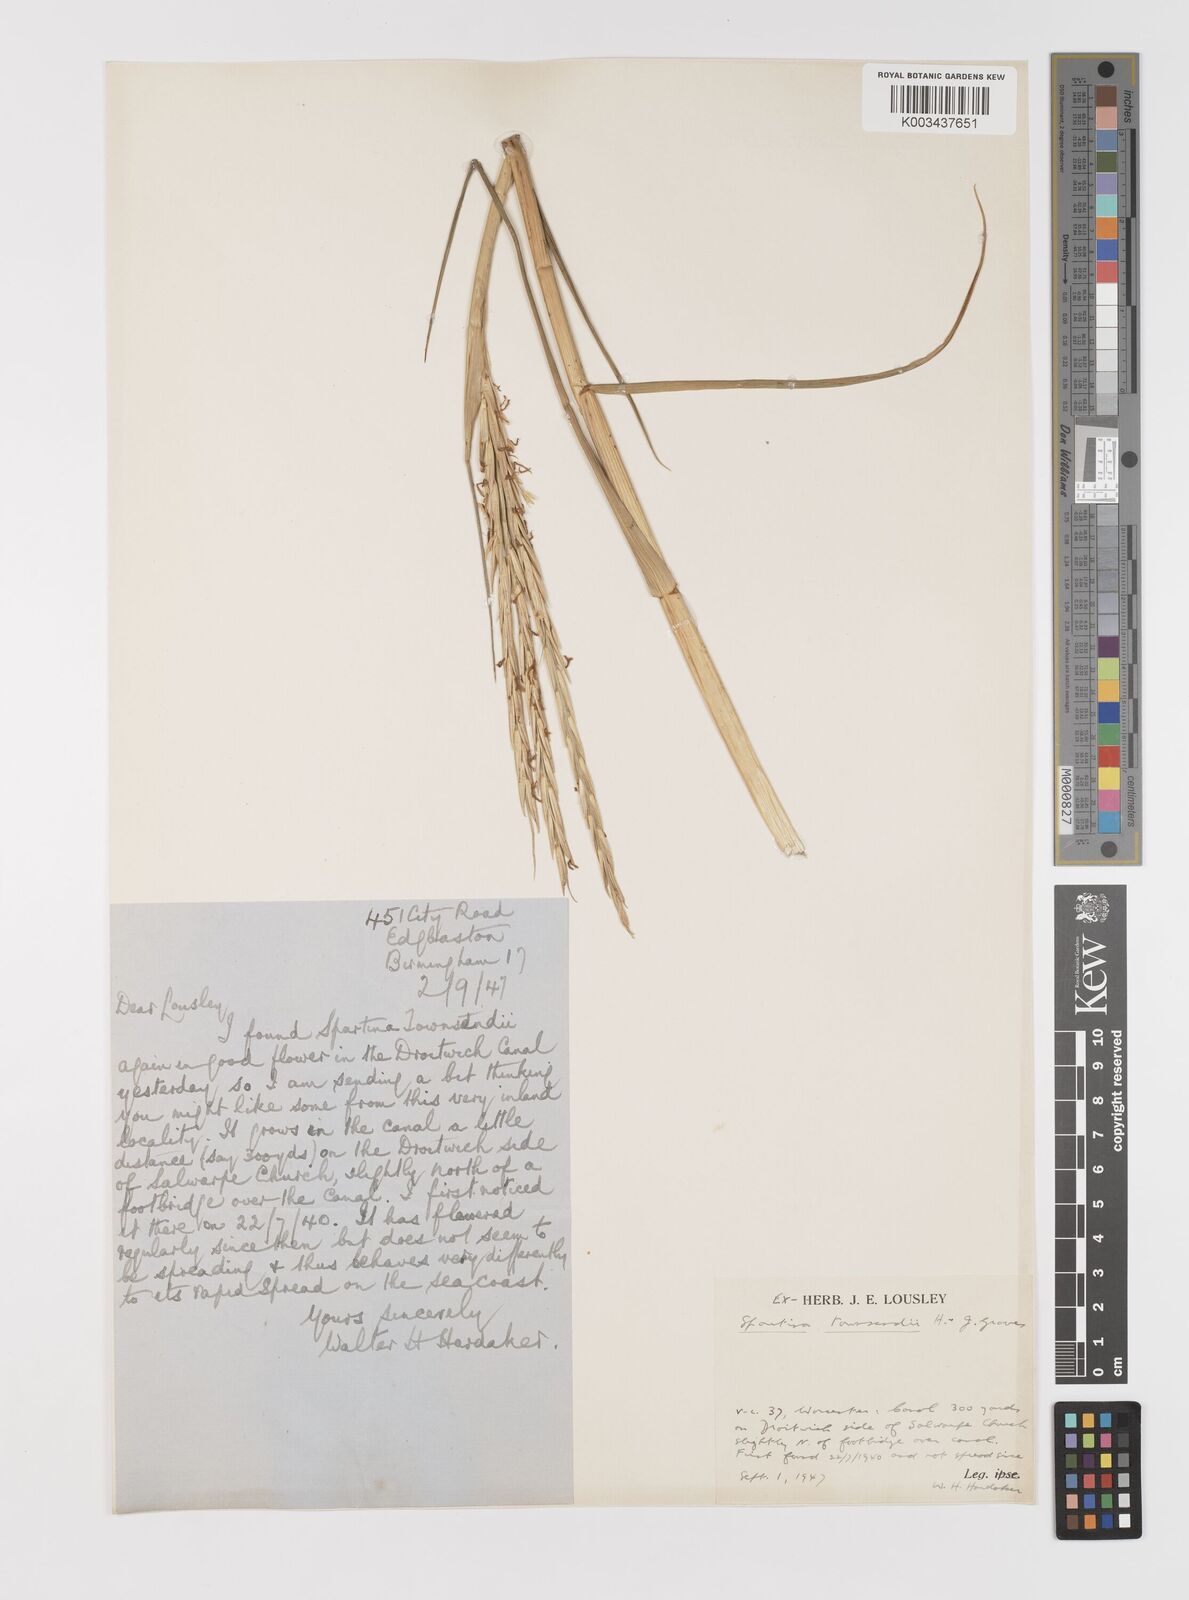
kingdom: Plantae
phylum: Tracheophyta
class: Liliopsida
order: Poales
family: Poaceae
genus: Sporobolus
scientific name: Sporobolus anglicus
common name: English cordgrass
